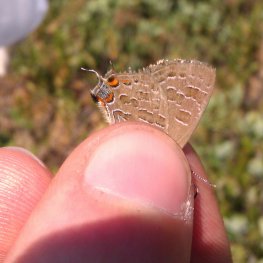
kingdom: Animalia
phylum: Arthropoda
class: Insecta
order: Lepidoptera
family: Lycaenidae
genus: Satyrium
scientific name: Satyrium liparops
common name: Striped Hairstreak
